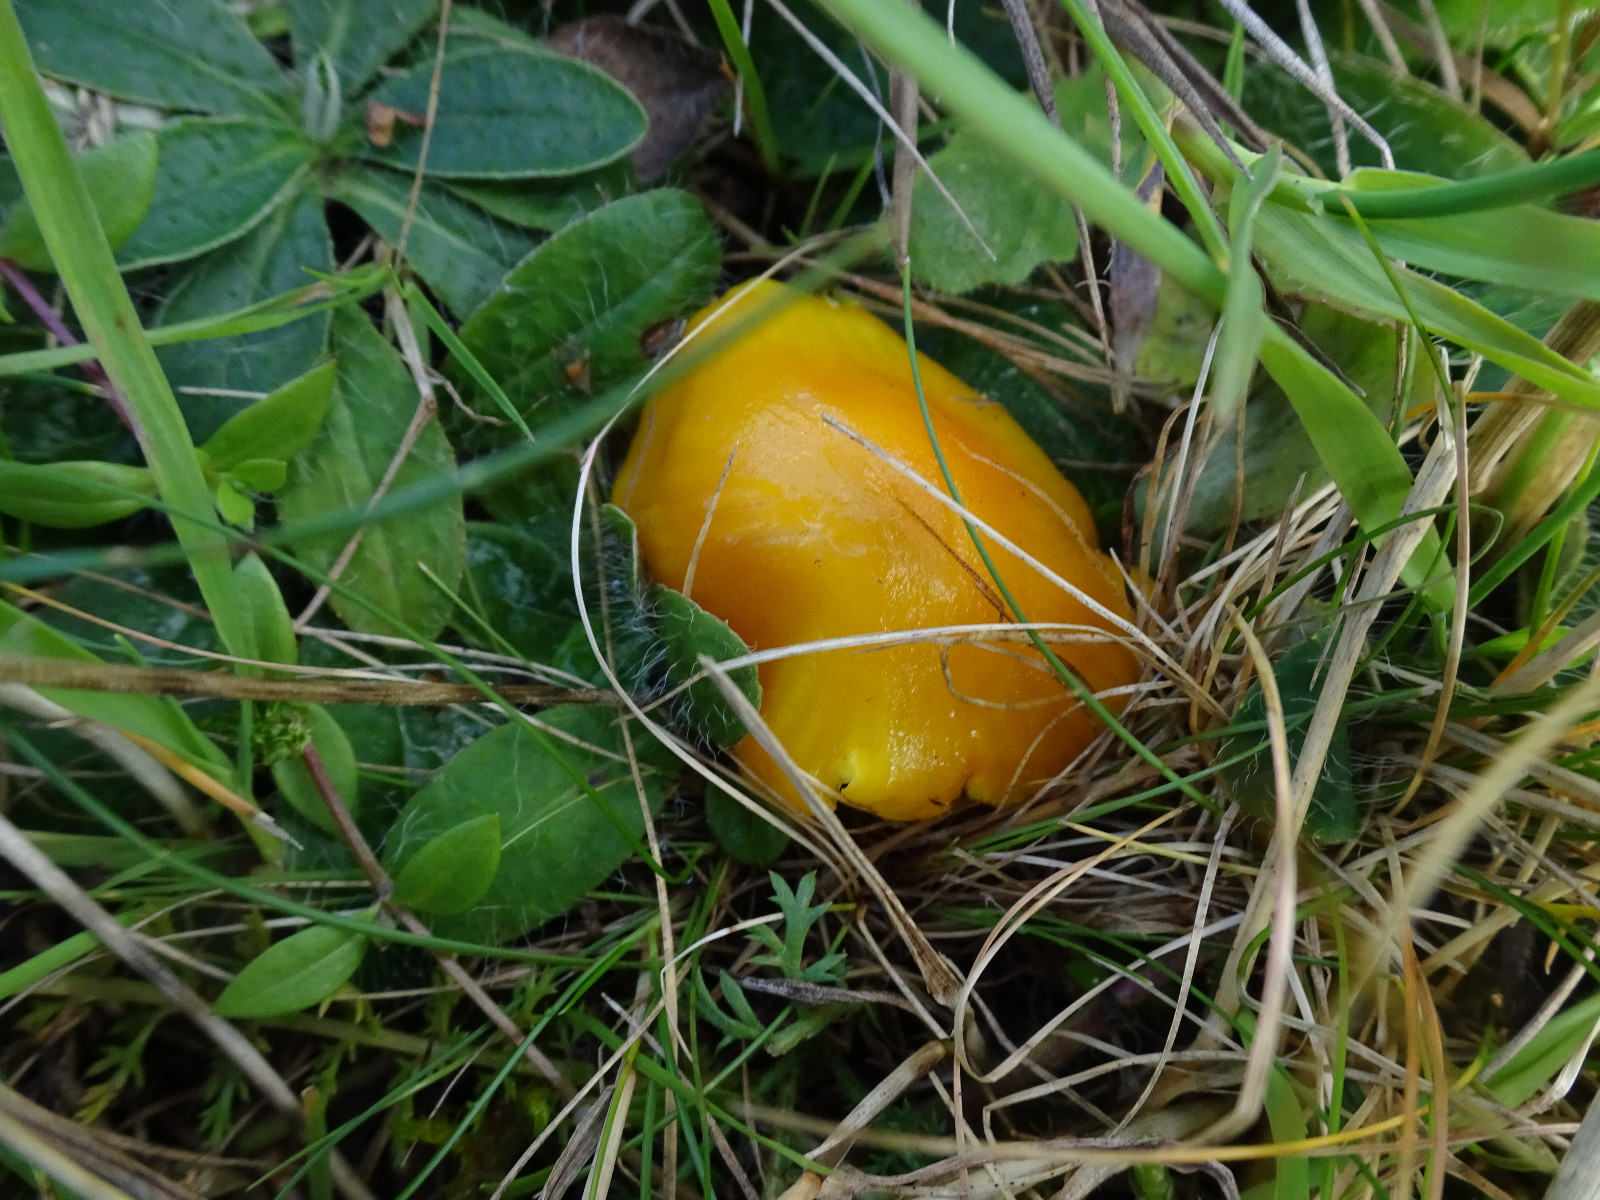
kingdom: Fungi
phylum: Basidiomycota
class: Agaricomycetes
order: Agaricales
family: Hygrophoraceae
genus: Hygrocybe
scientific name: Hygrocybe ceracea
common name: voksgul vokshat
